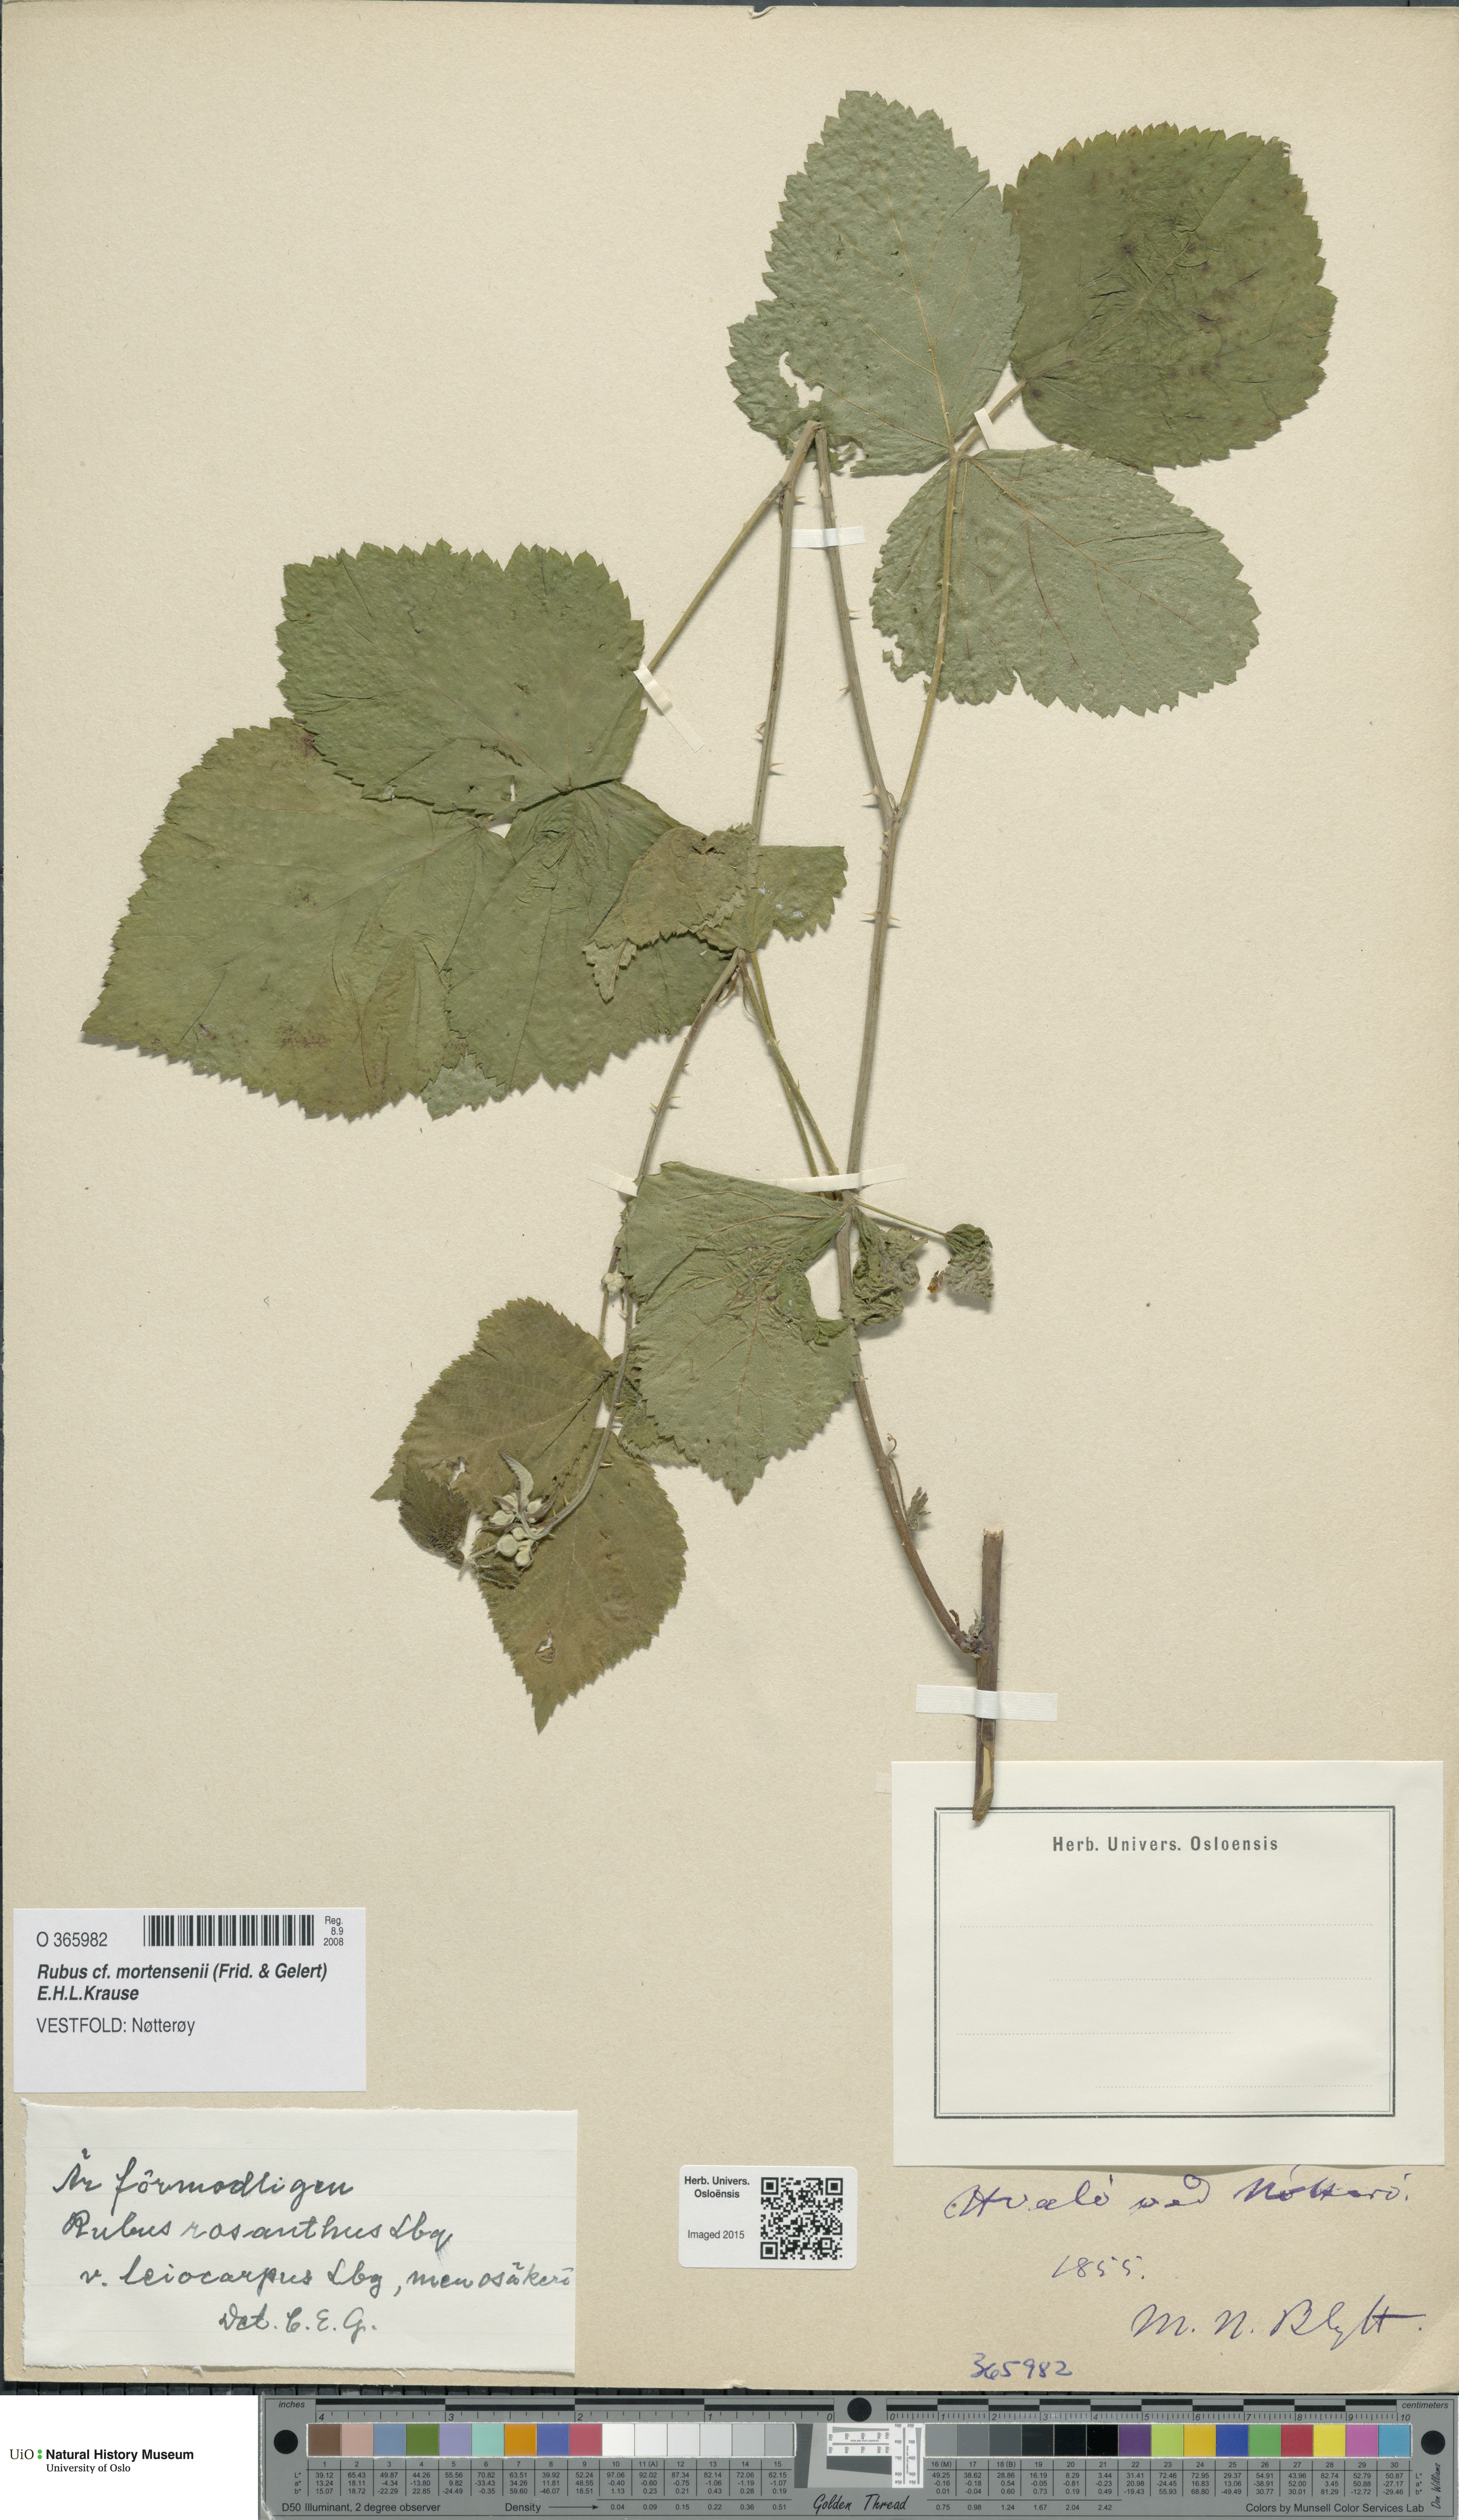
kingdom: Plantae
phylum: Tracheophyta
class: Magnoliopsida
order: Rosales
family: Rosaceae
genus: Rubus
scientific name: Rubus mortensenii
